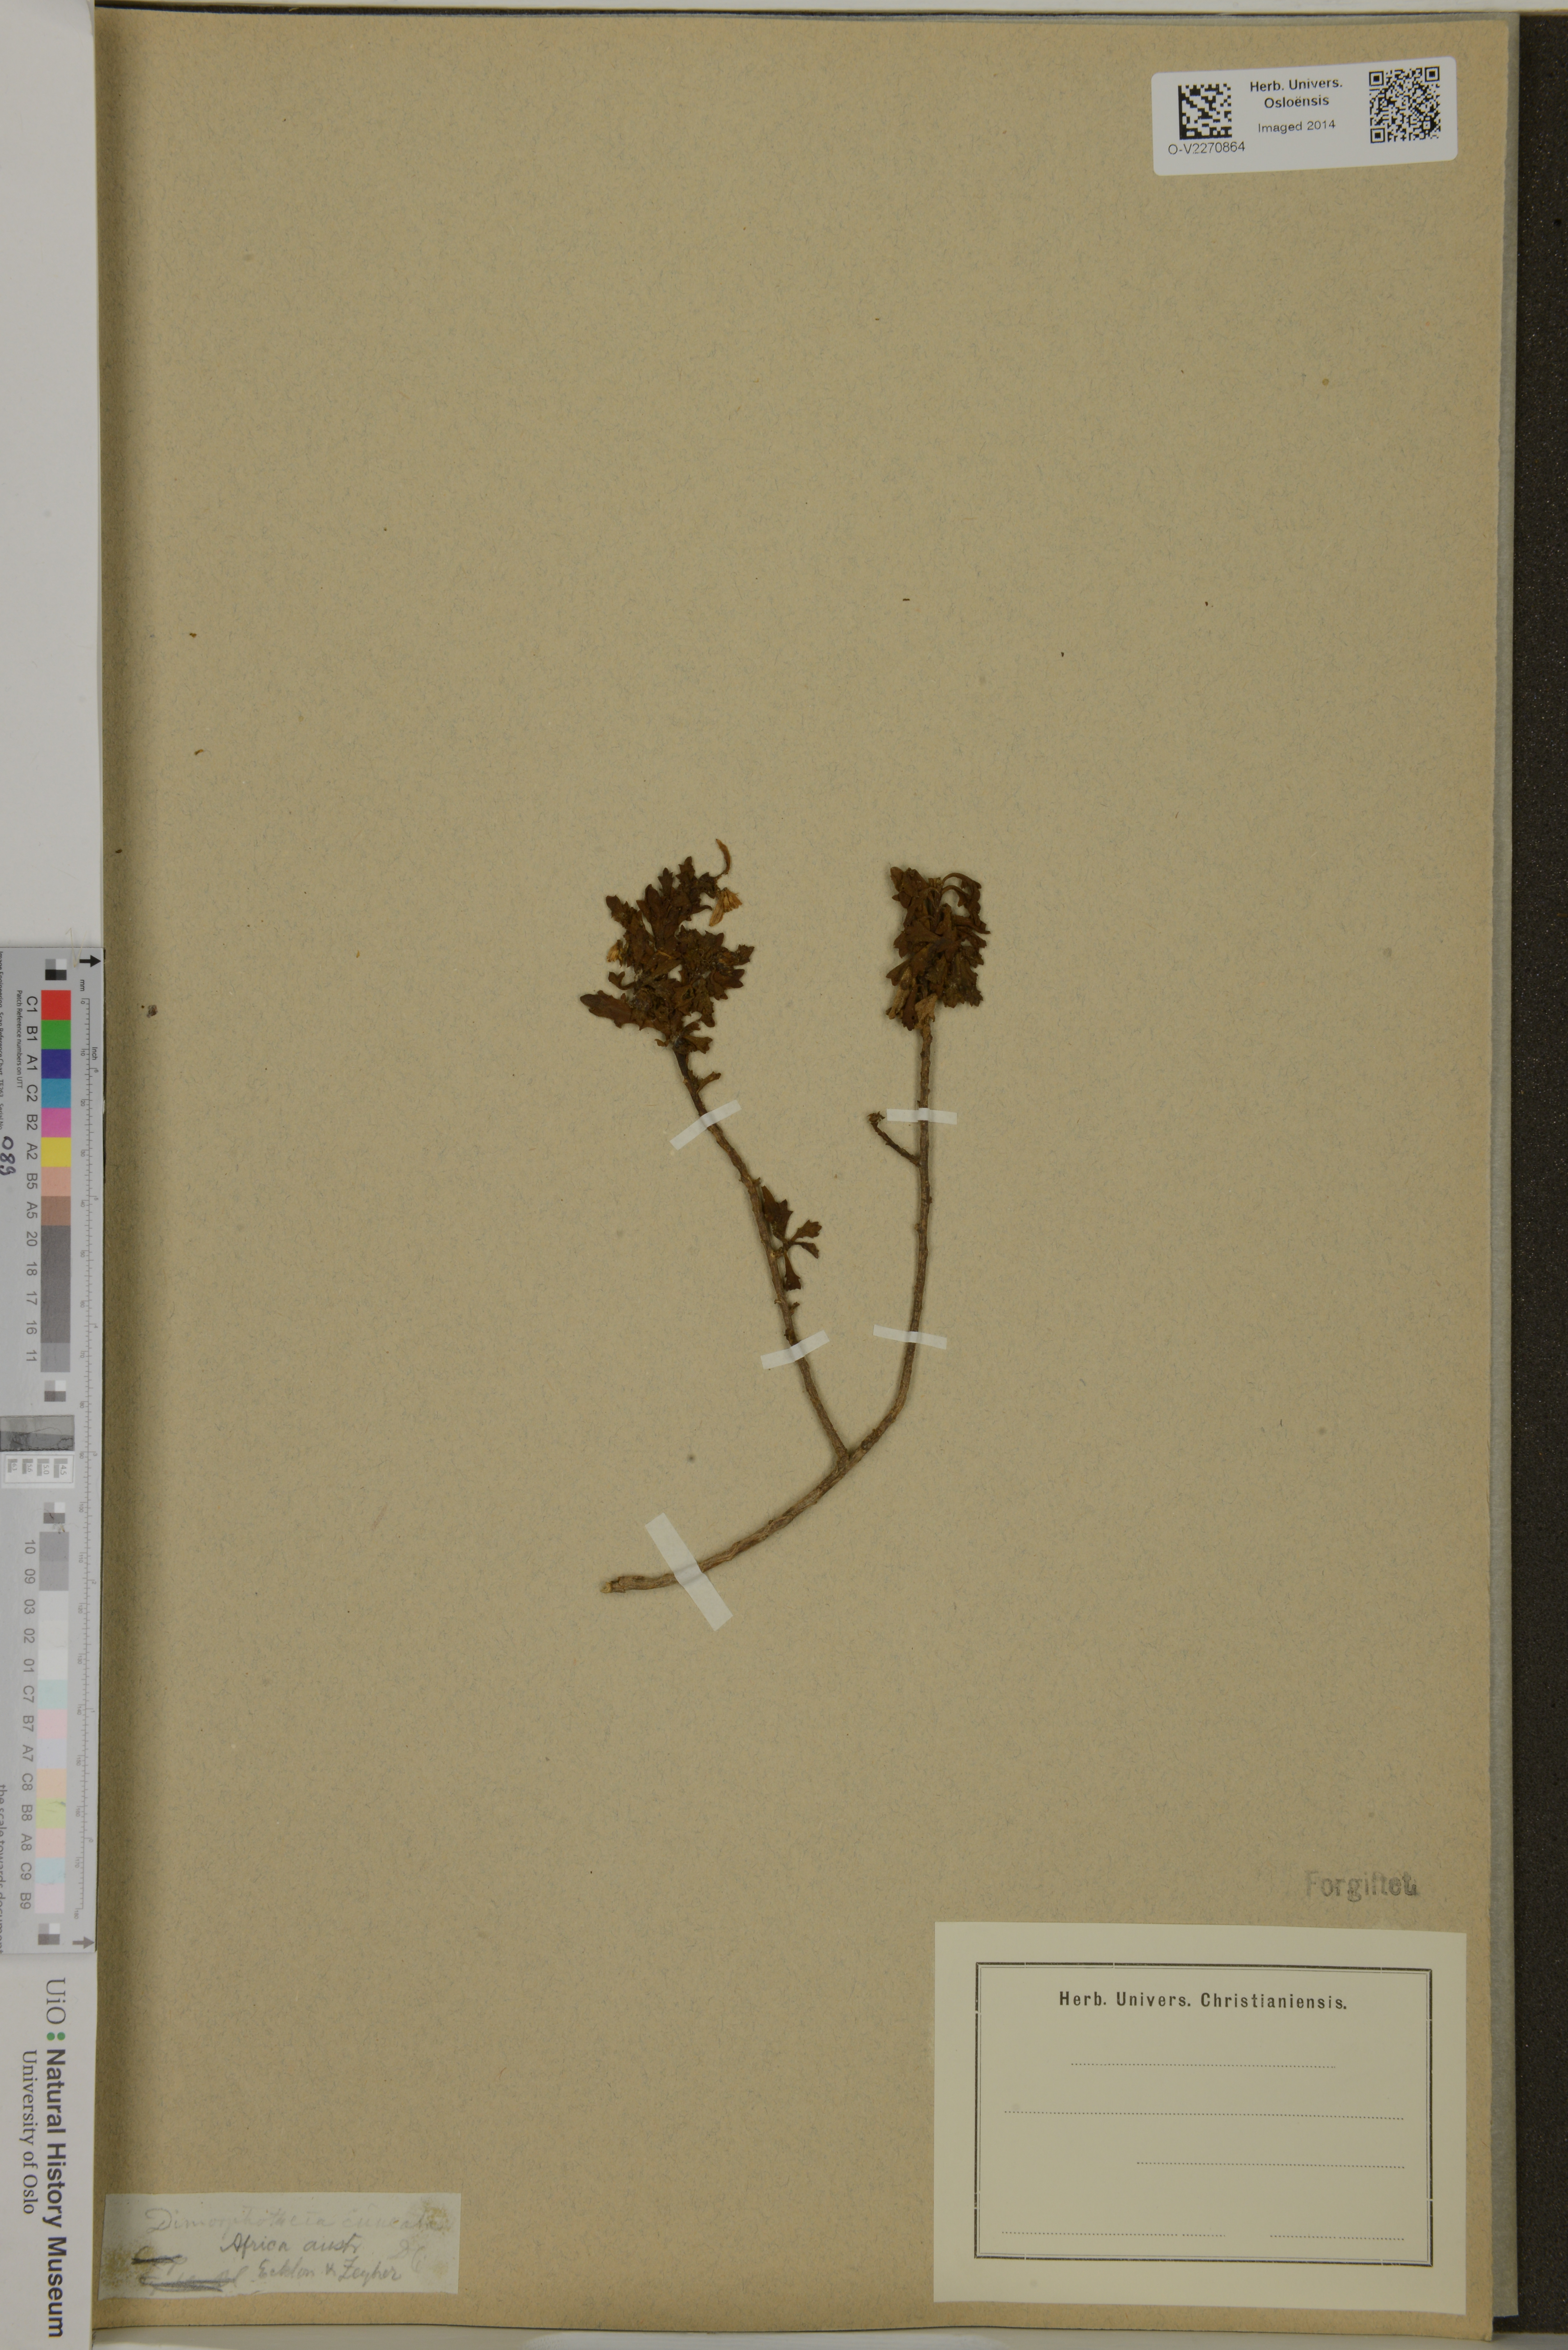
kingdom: Plantae
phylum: Tracheophyta
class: Magnoliopsida
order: Asterales
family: Asteraceae
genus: Dimorphotheca
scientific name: Dimorphotheca cuneata
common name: Daisy
